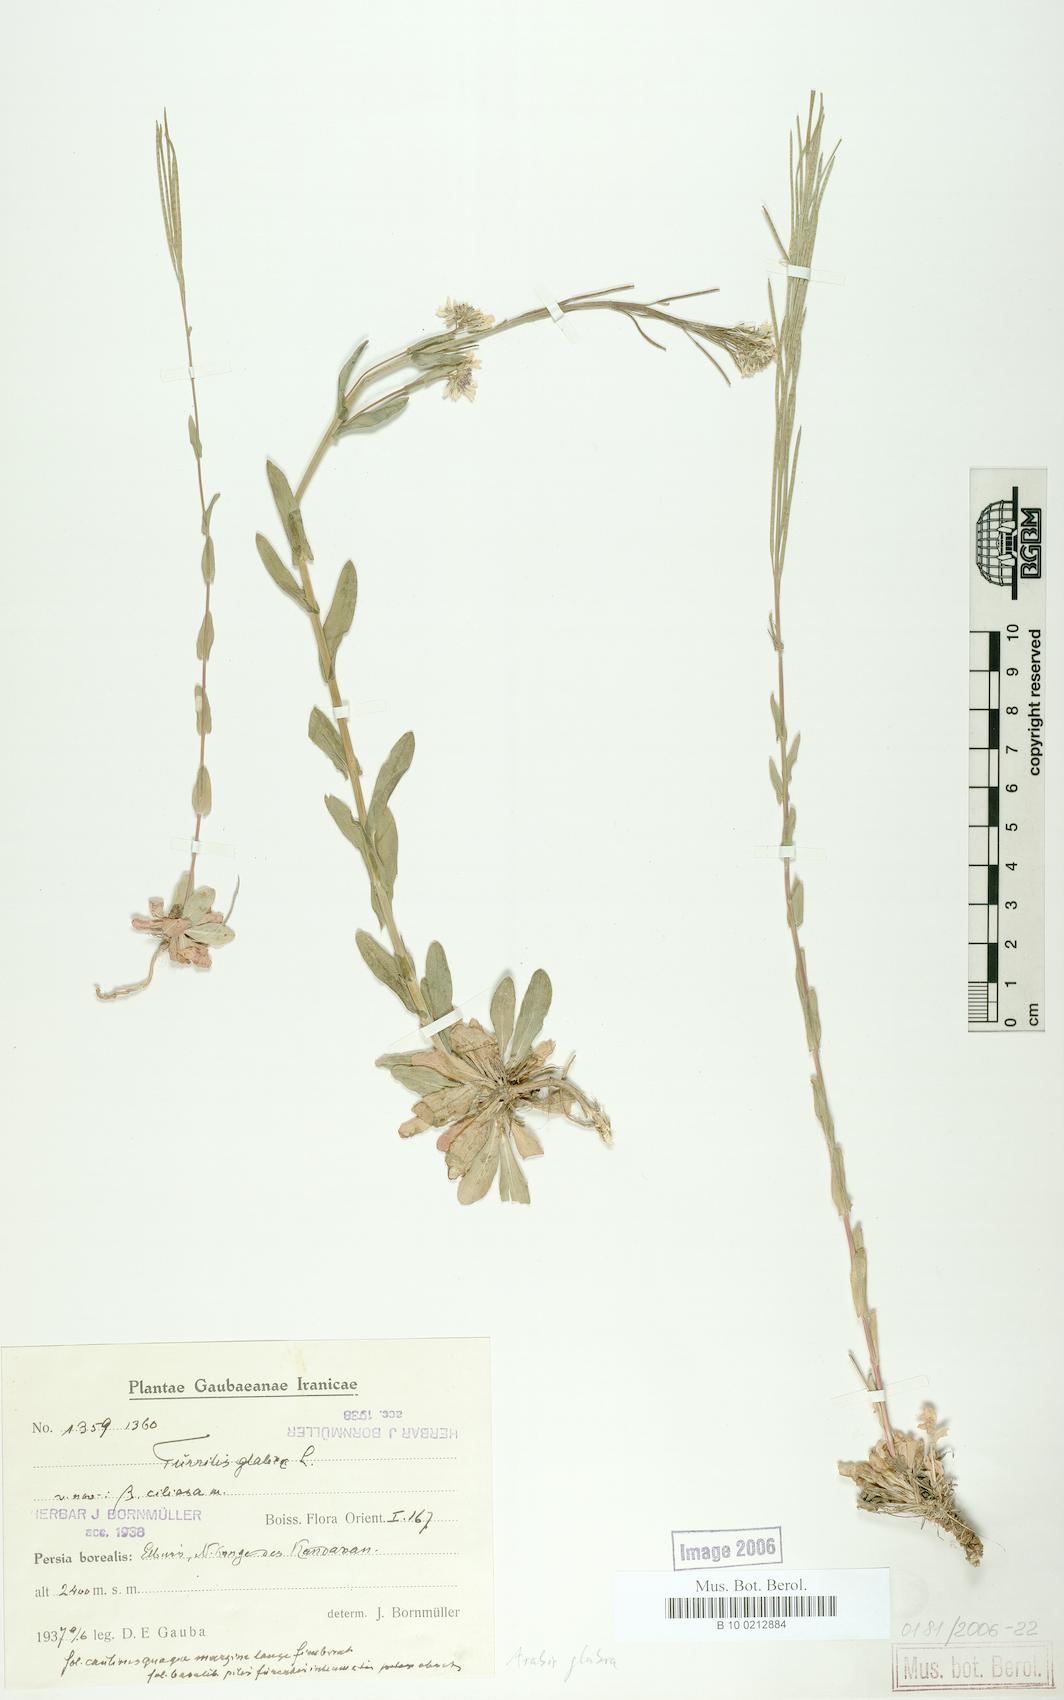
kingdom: Plantae
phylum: Tracheophyta
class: Magnoliopsida
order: Brassicales
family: Brassicaceae
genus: Turritis
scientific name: Turritis glabra
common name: Tower rockcress
